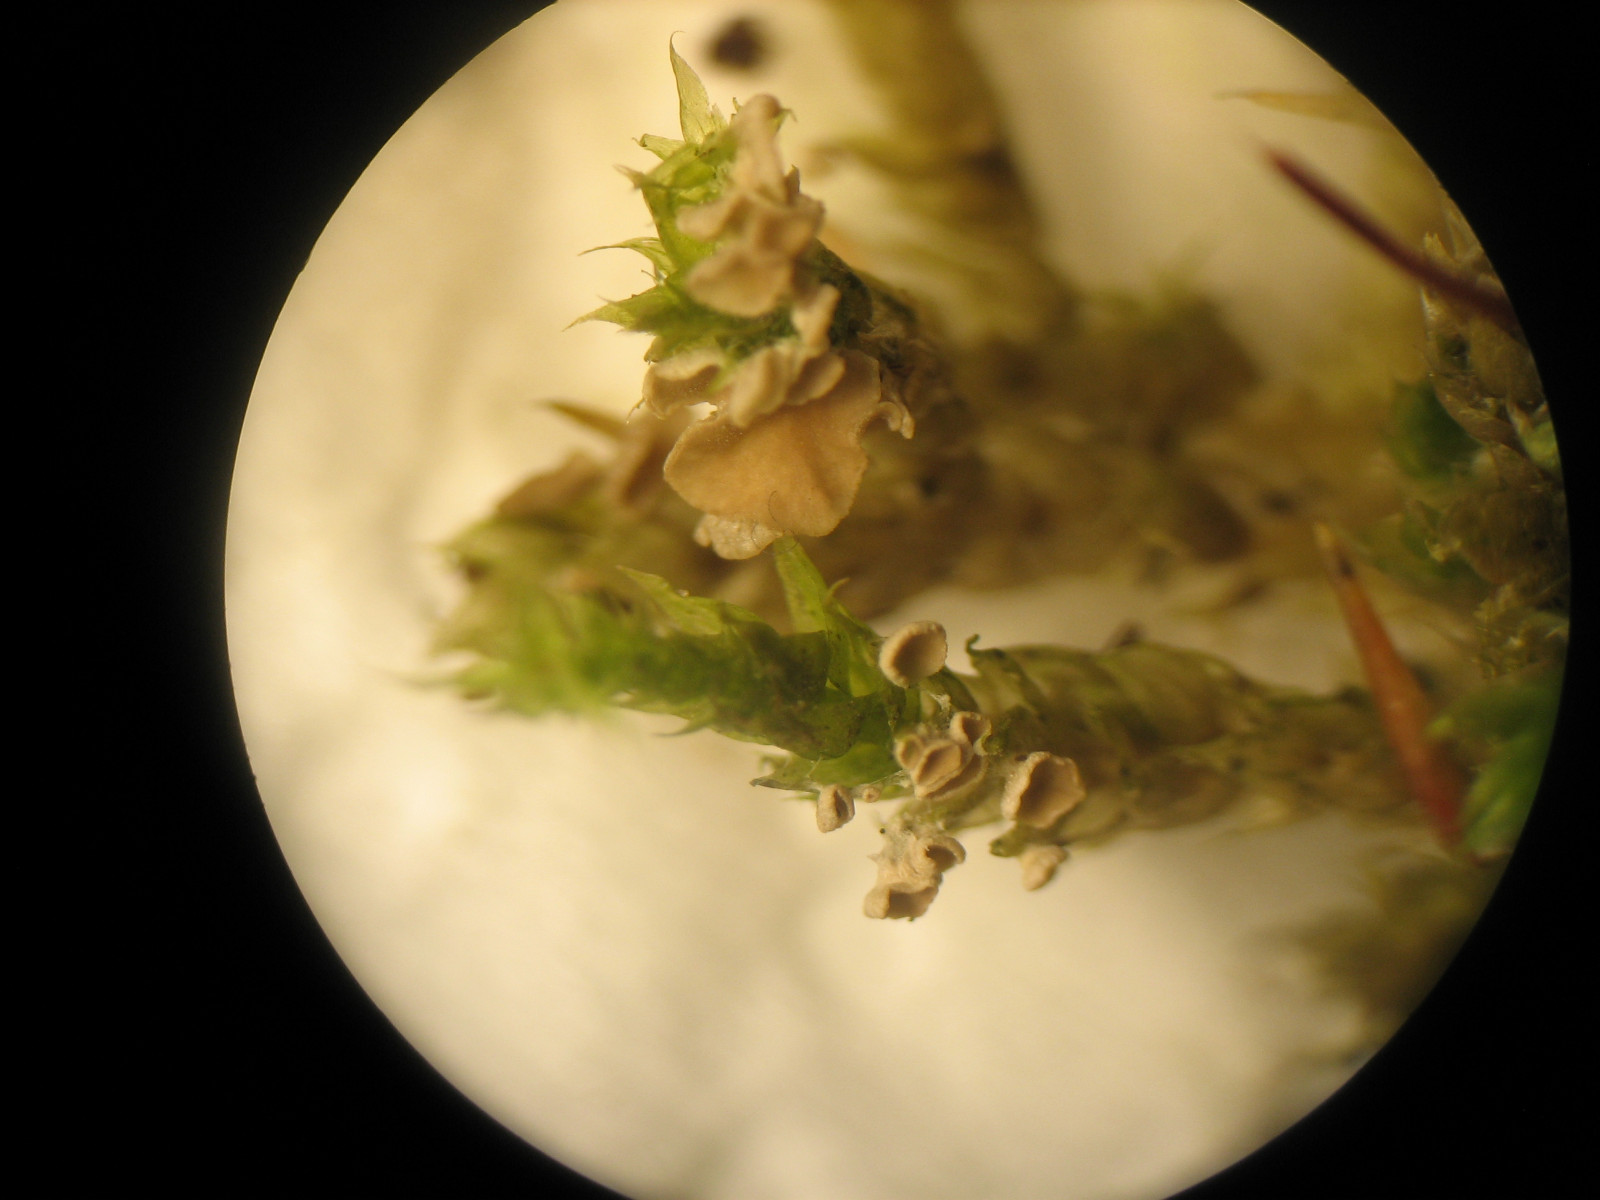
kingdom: Fungi
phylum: Basidiomycota
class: Agaricomycetes
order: Agaricales
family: Hygrophoraceae
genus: Arrhenia
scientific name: Arrhenia retiruga
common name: lille fontænehat
